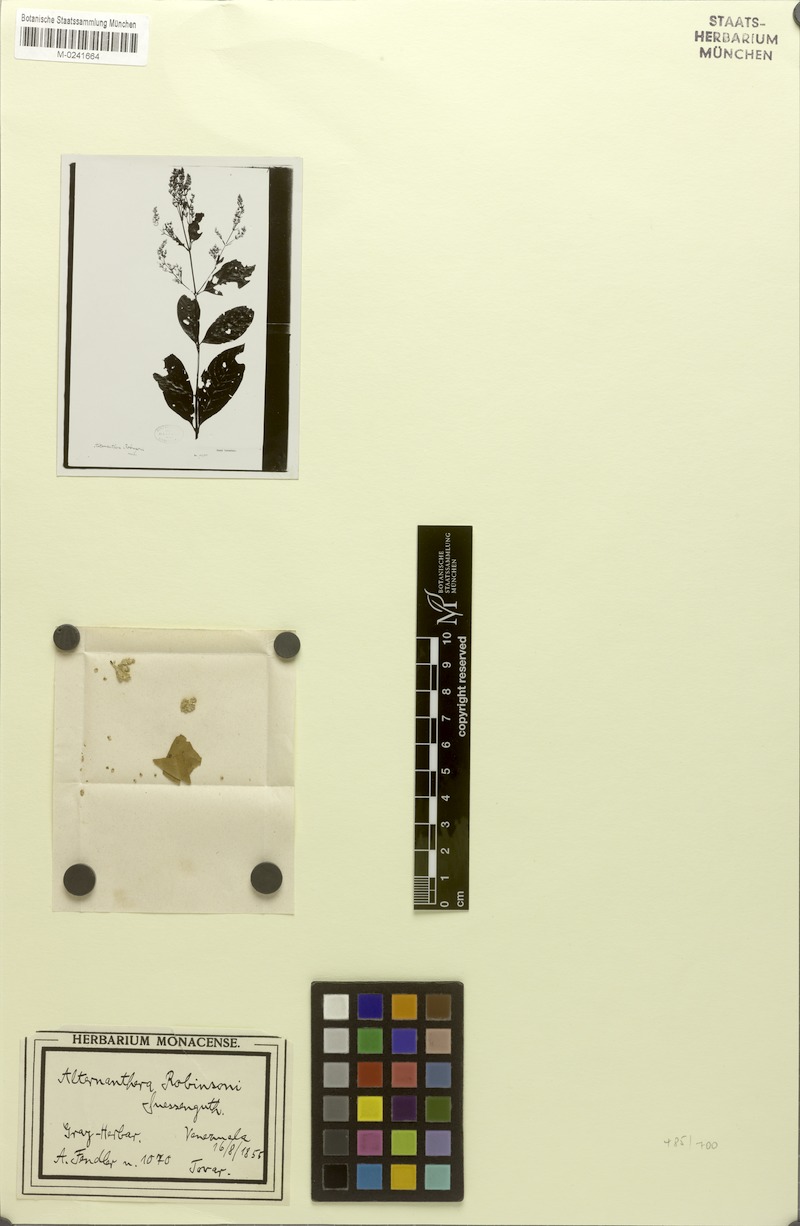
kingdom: Plantae
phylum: Tracheophyta
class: Magnoliopsida
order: Caryophyllales
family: Amaranthaceae
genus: Alternanthera
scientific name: Alternanthera robinsonii
